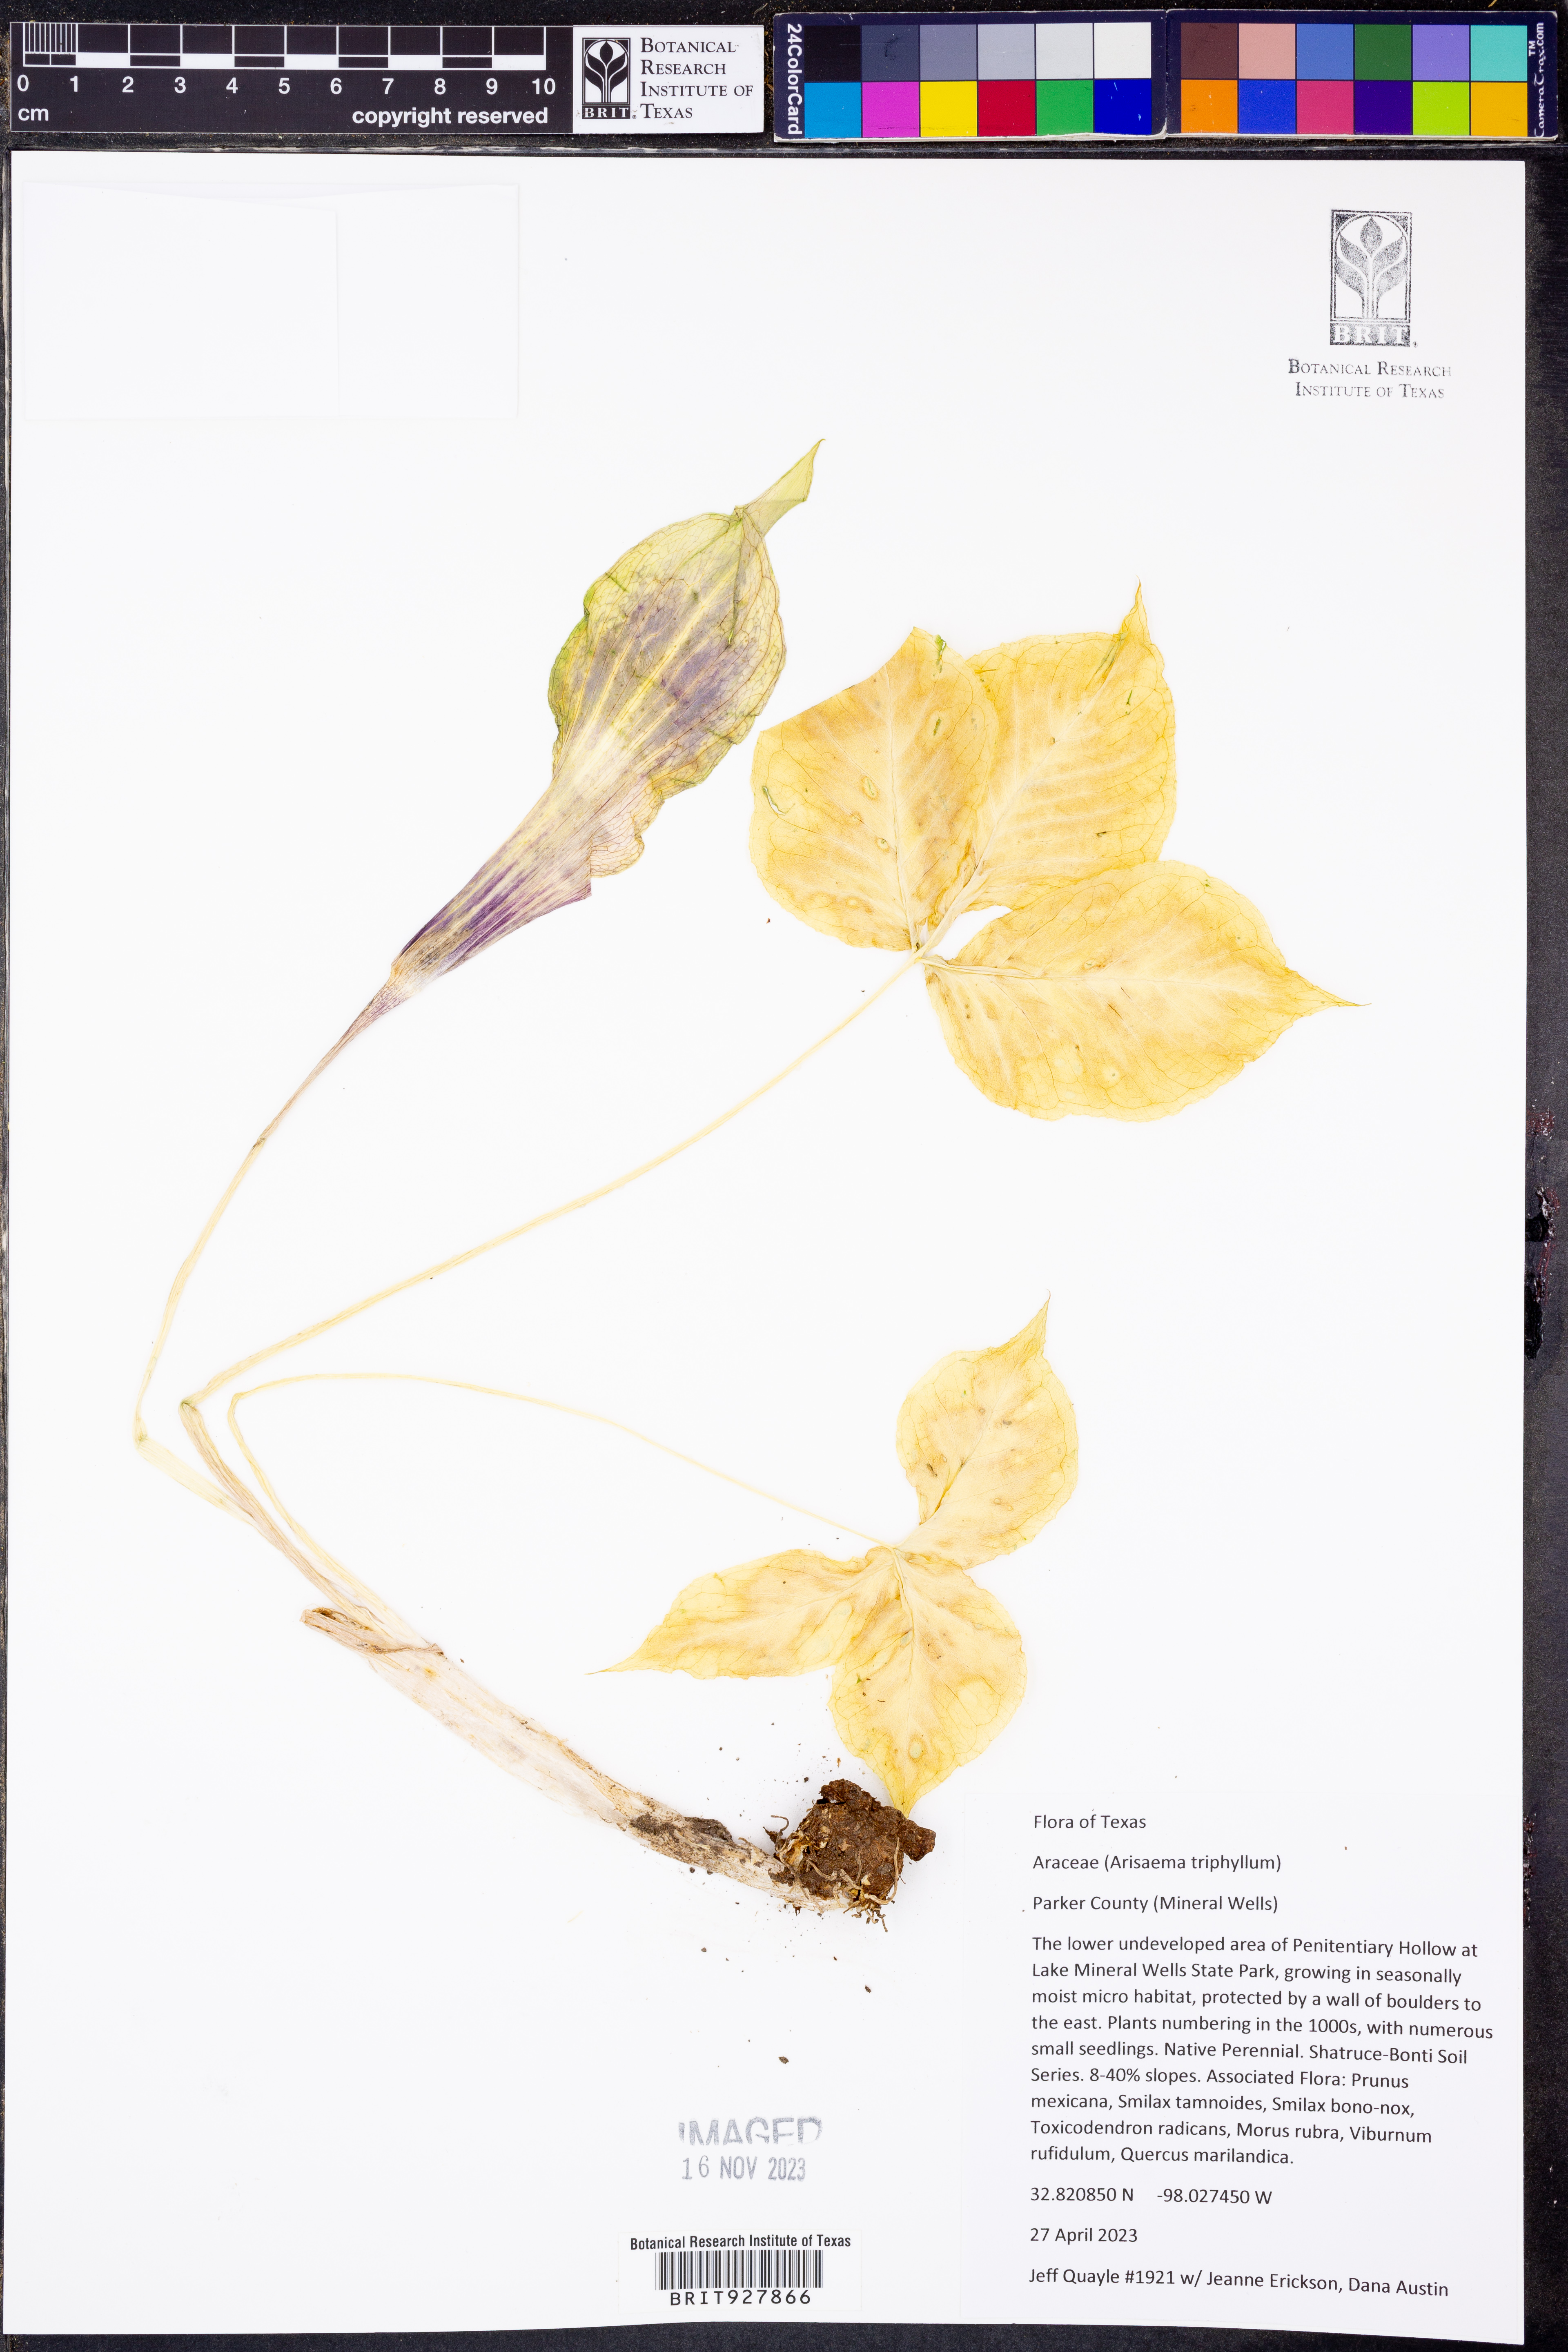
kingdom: Plantae
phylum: Tracheophyta
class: Liliopsida
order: Alismatales
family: Araceae
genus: Arisaema
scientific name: Arisaema triphyllum
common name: Jack-in-the-pulpit
